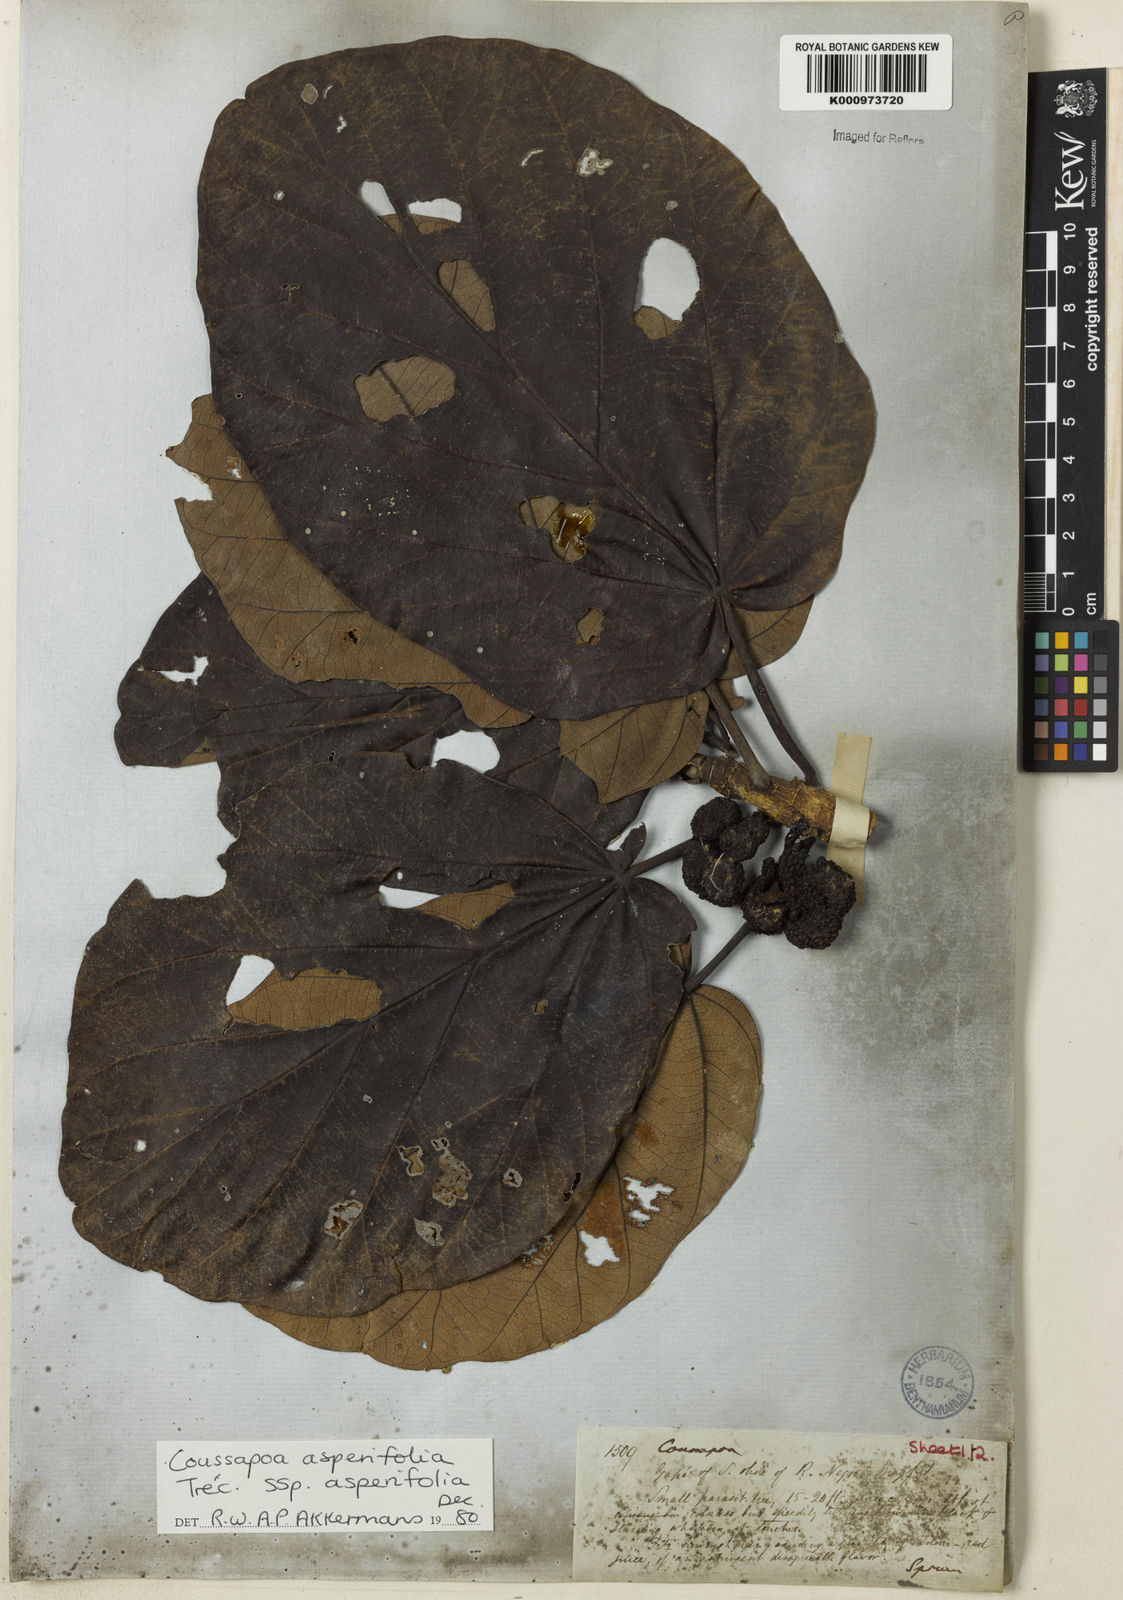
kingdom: Plantae
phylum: Tracheophyta
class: Magnoliopsida
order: Rosales
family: Urticaceae
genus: Coussapoa
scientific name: Coussapoa
